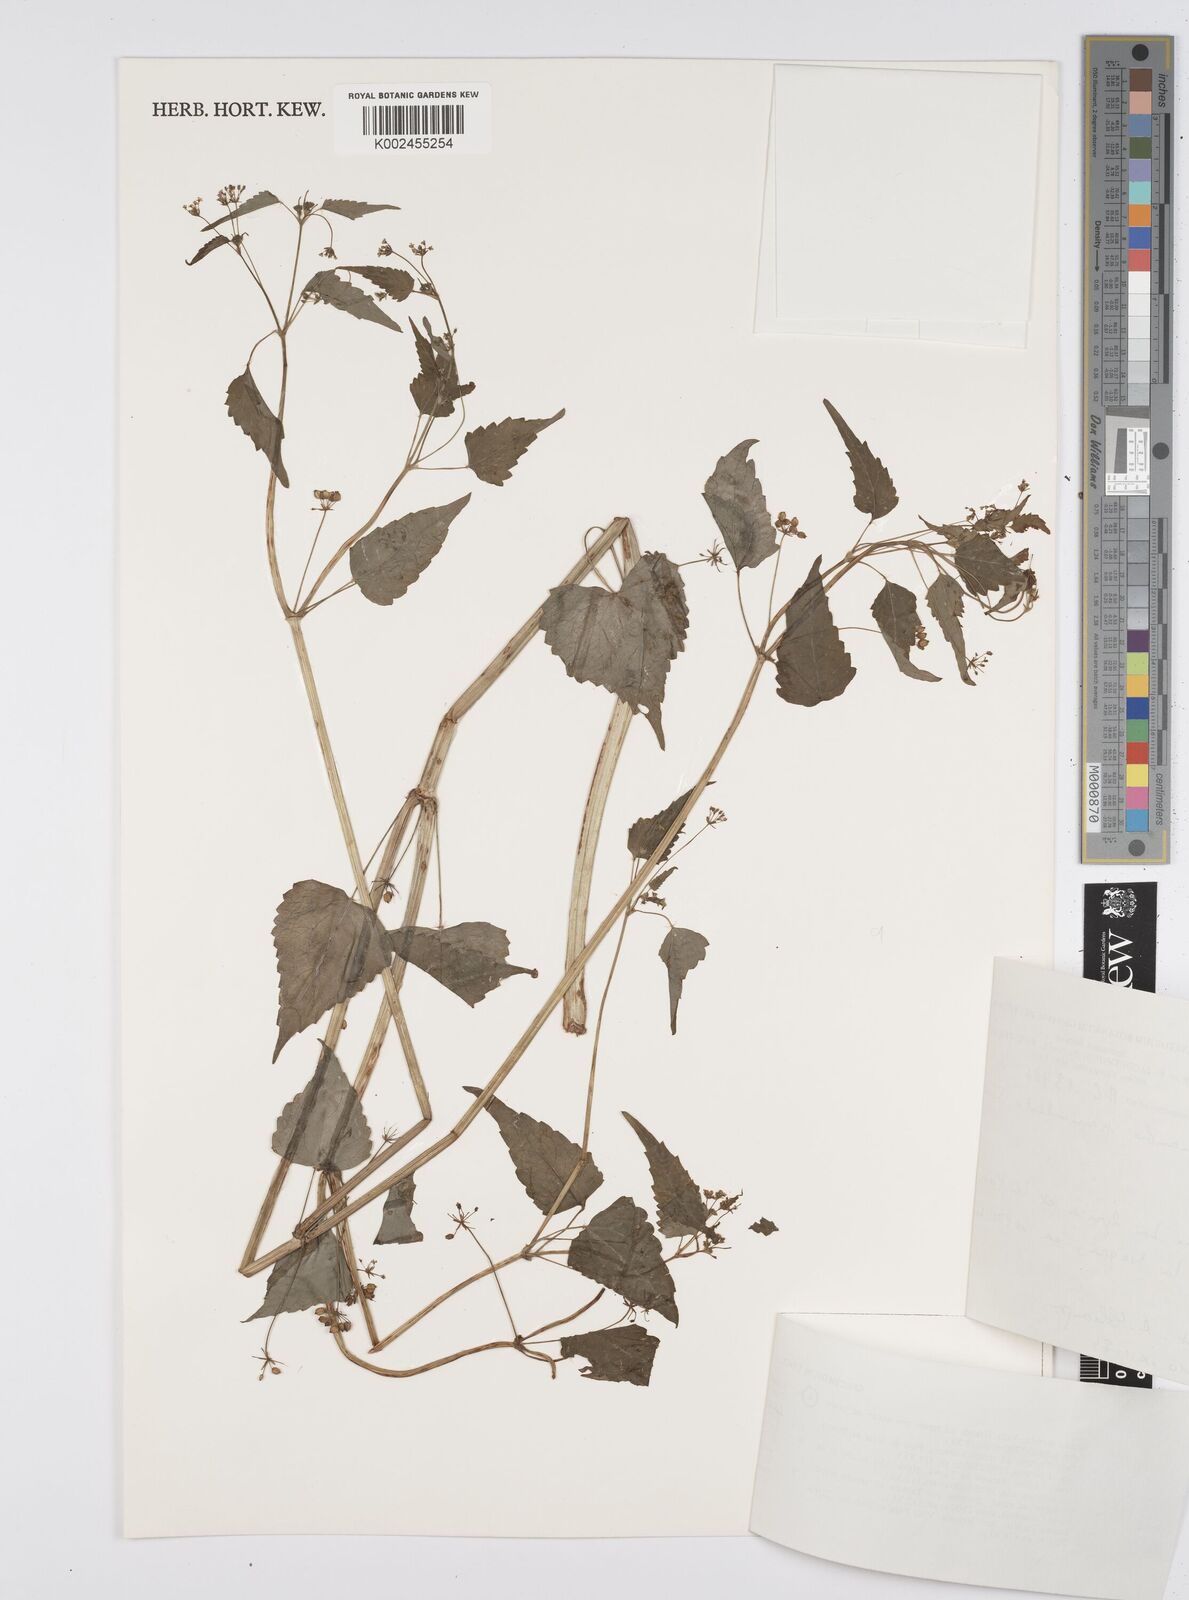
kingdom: Plantae
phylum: Tracheophyta
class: Magnoliopsida
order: Apiales
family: Apiaceae
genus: Azorella
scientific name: Azorella
